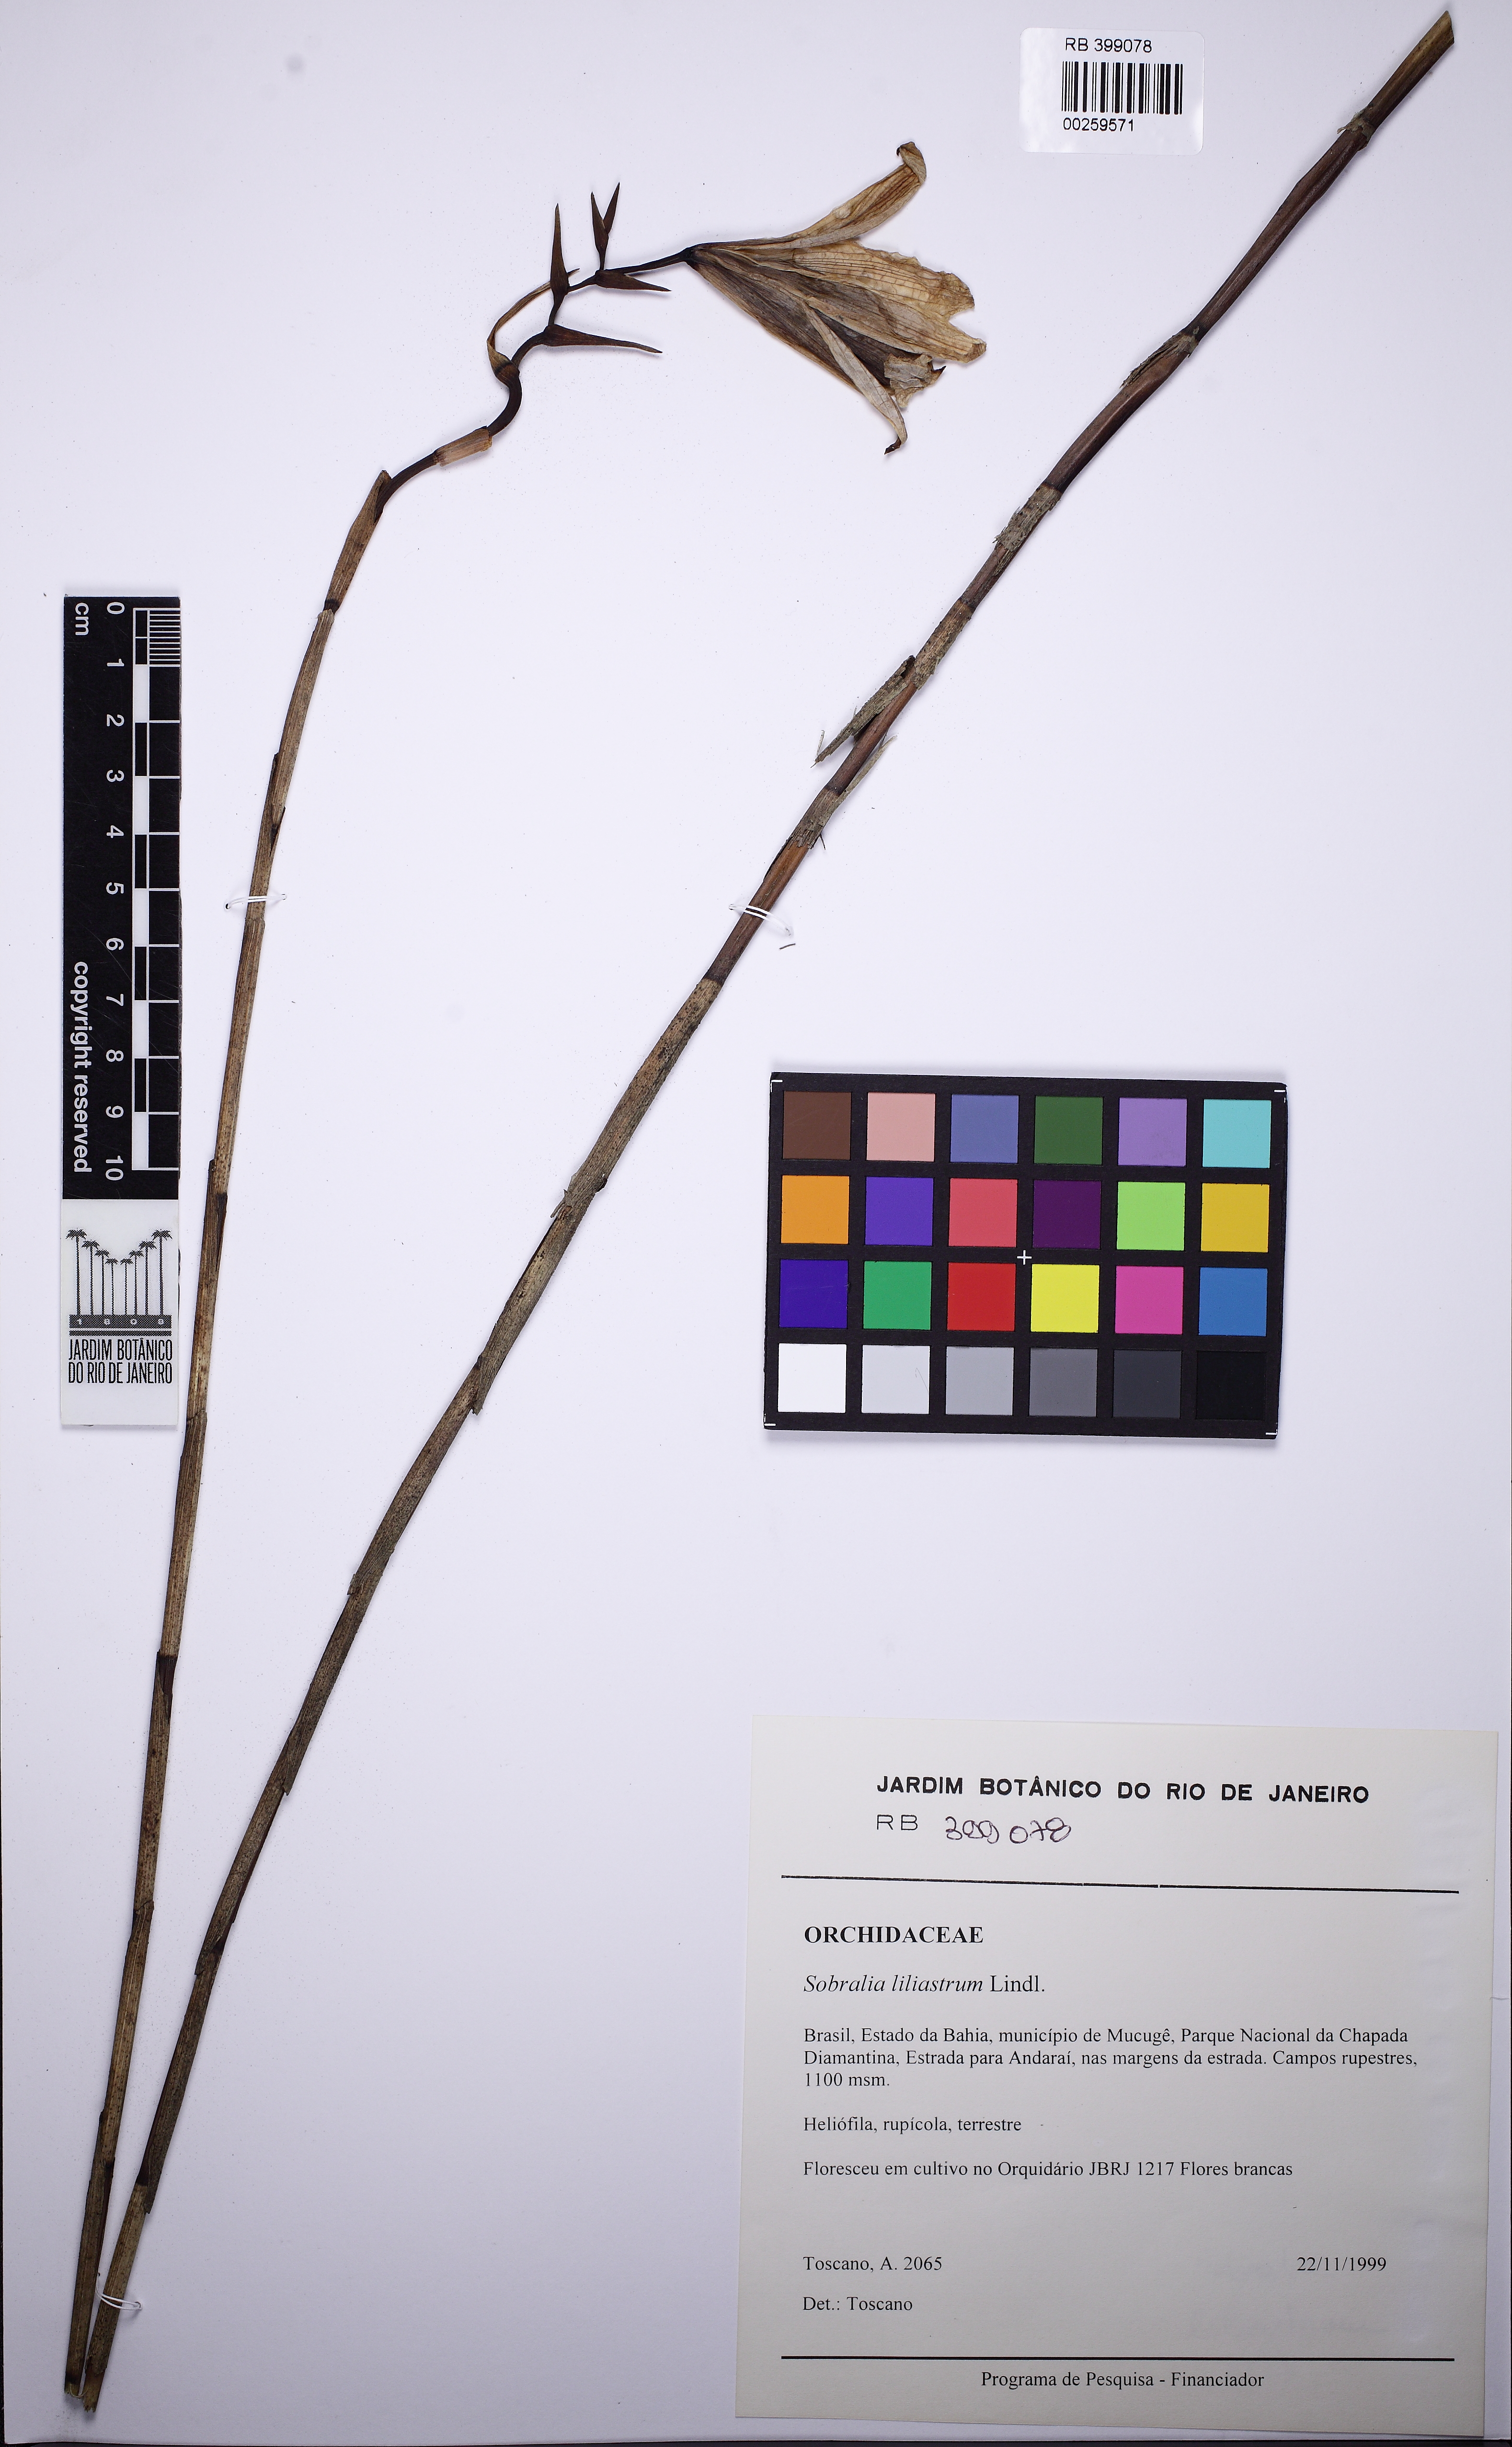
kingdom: Plantae
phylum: Tracheophyta
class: Liliopsida
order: Asparagales
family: Orchidaceae
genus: Sobralia
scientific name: Sobralia liliastrum
